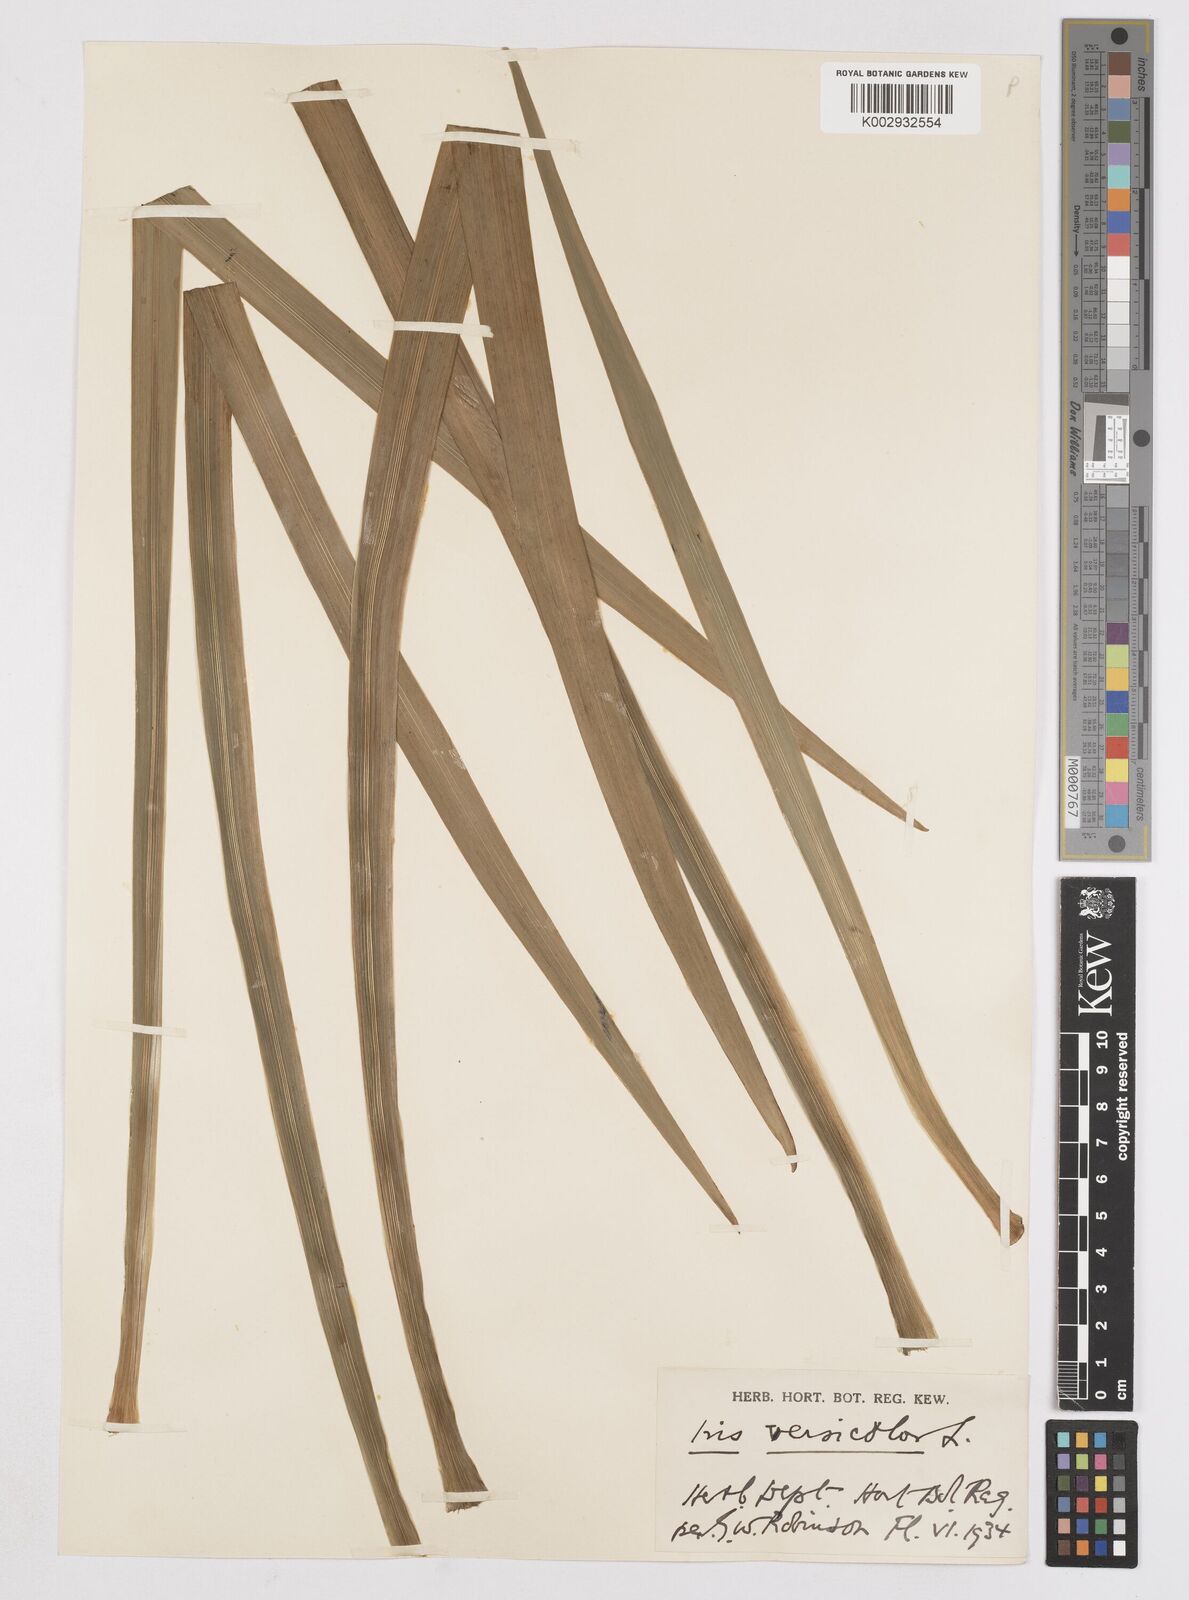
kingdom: Plantae
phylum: Tracheophyta
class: Liliopsida
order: Asparagales
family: Iridaceae
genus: Iris
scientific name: Iris versicolor
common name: Purple iris
